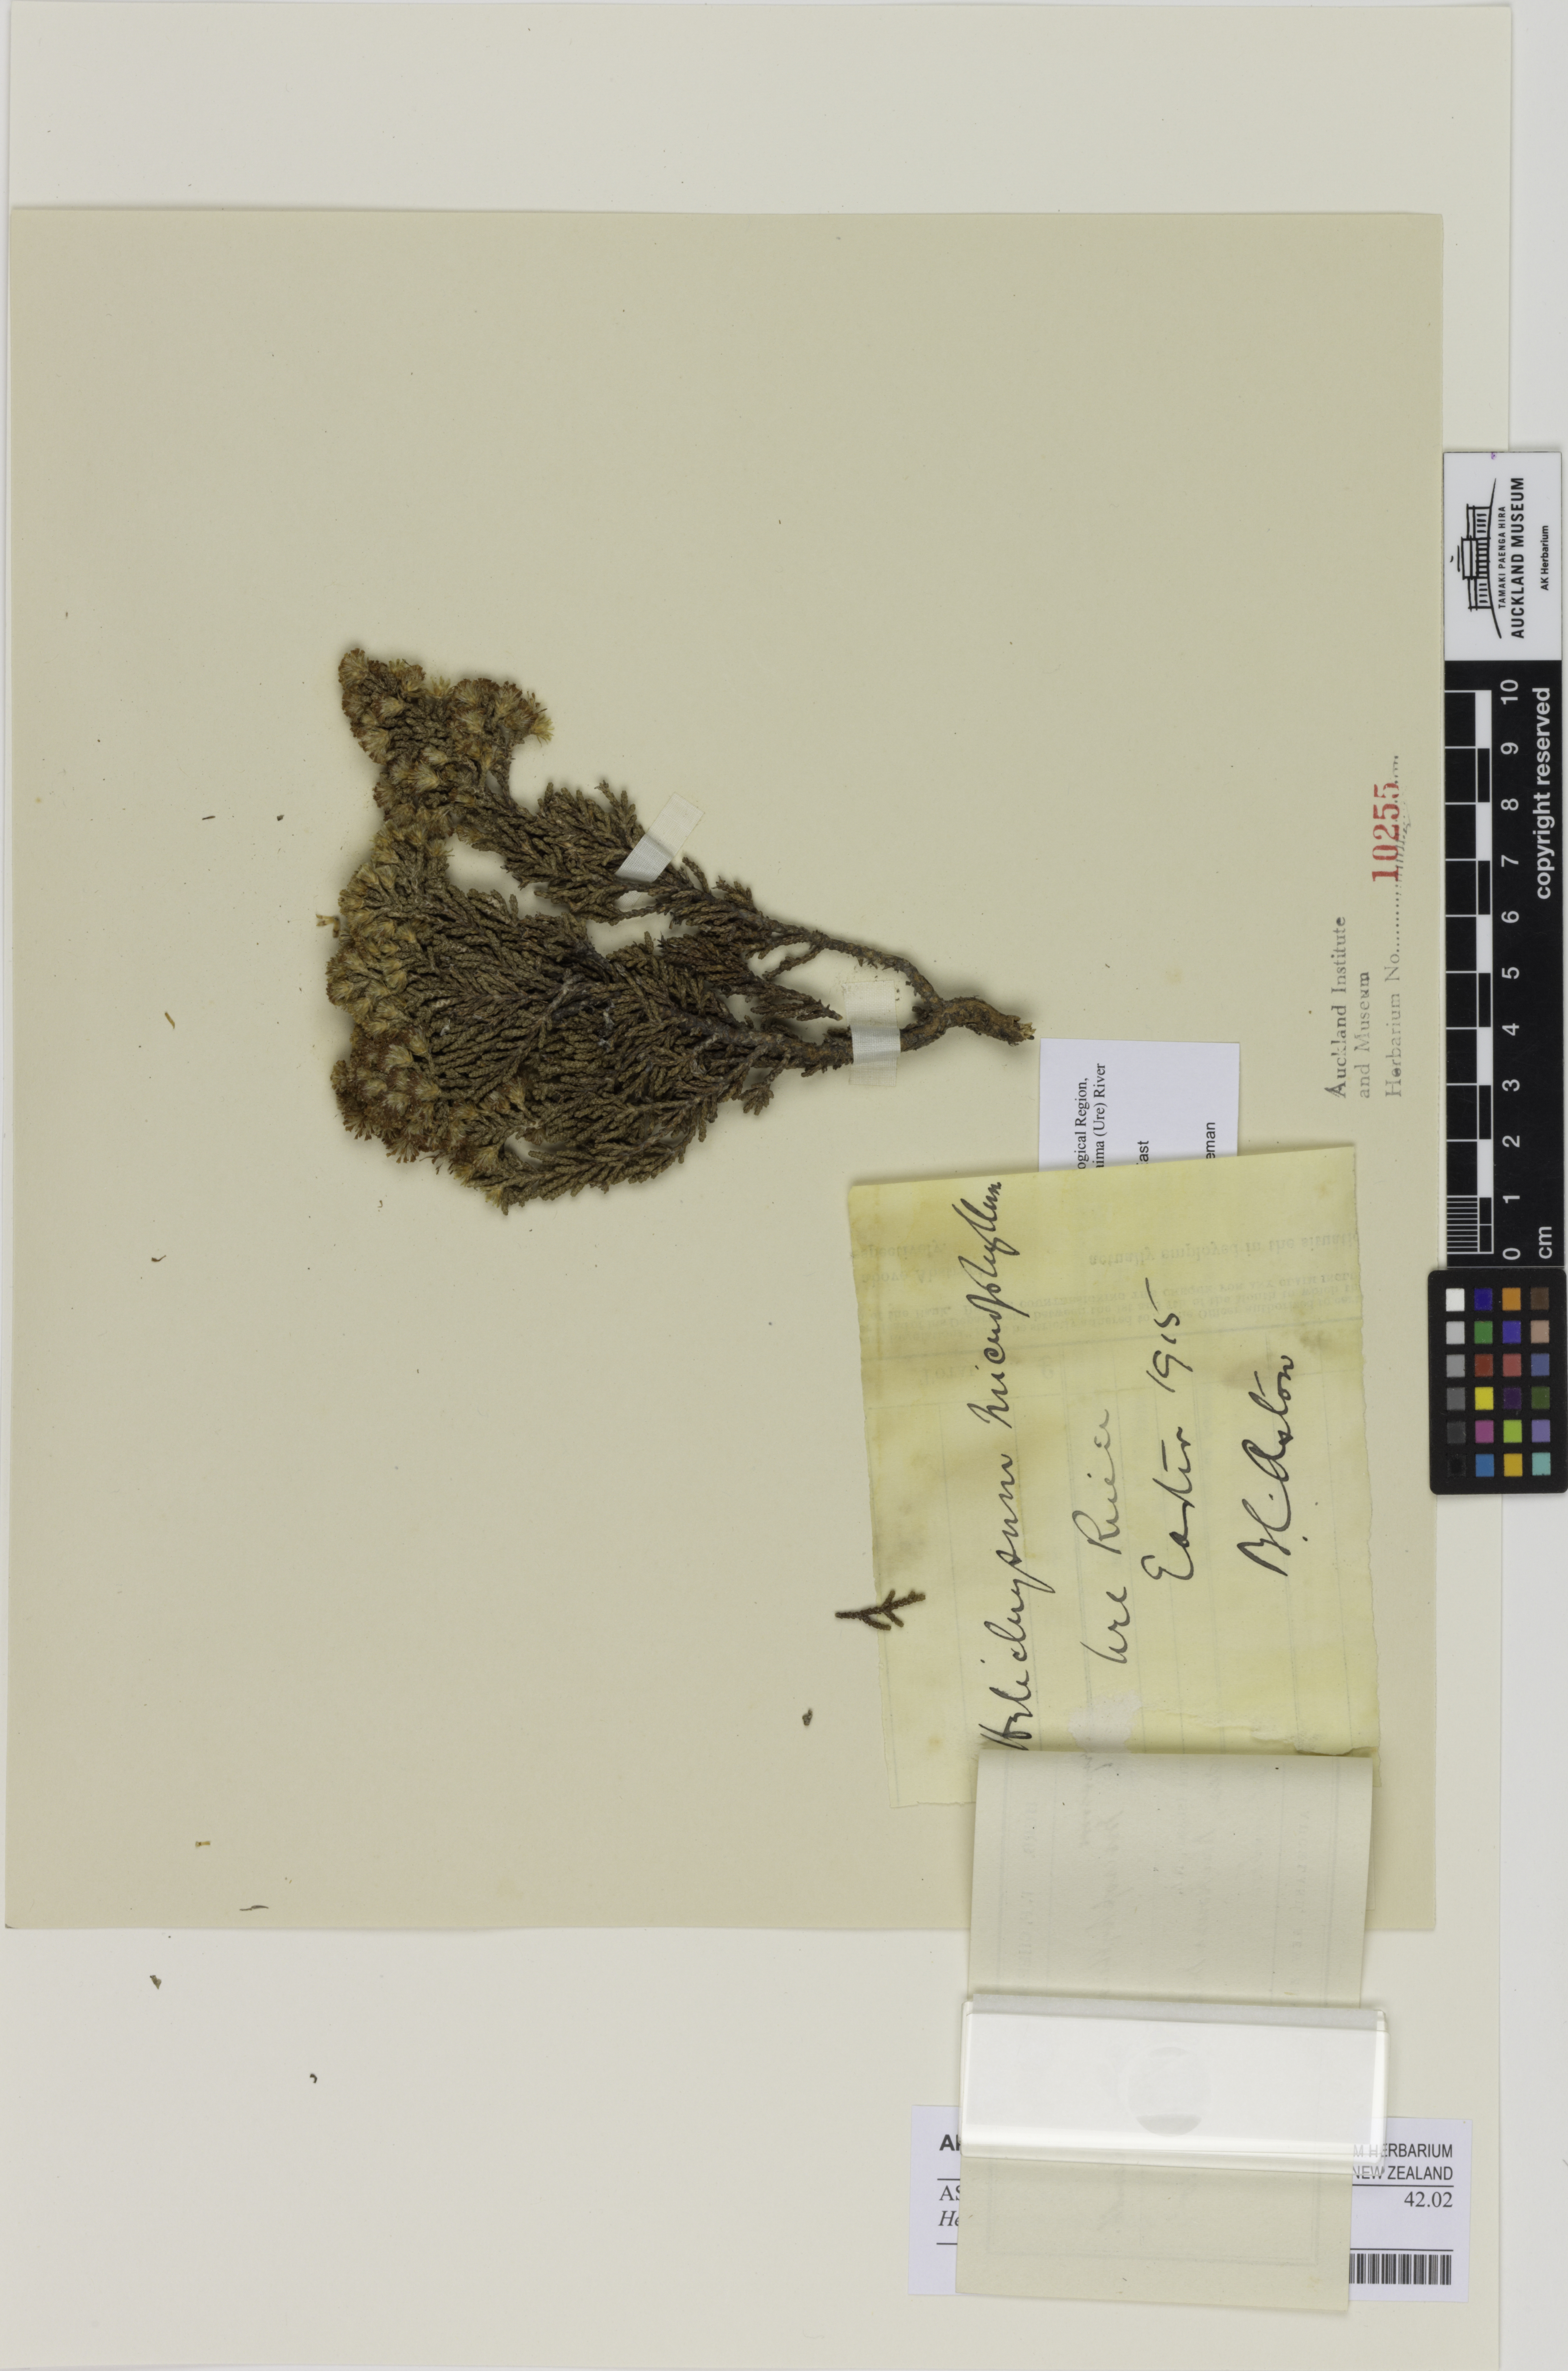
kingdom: Plantae
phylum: Tracheophyta
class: Magnoliopsida
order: Asterales
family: Asteraceae
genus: Ozothamnus
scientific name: Ozothamnus parvifolius
